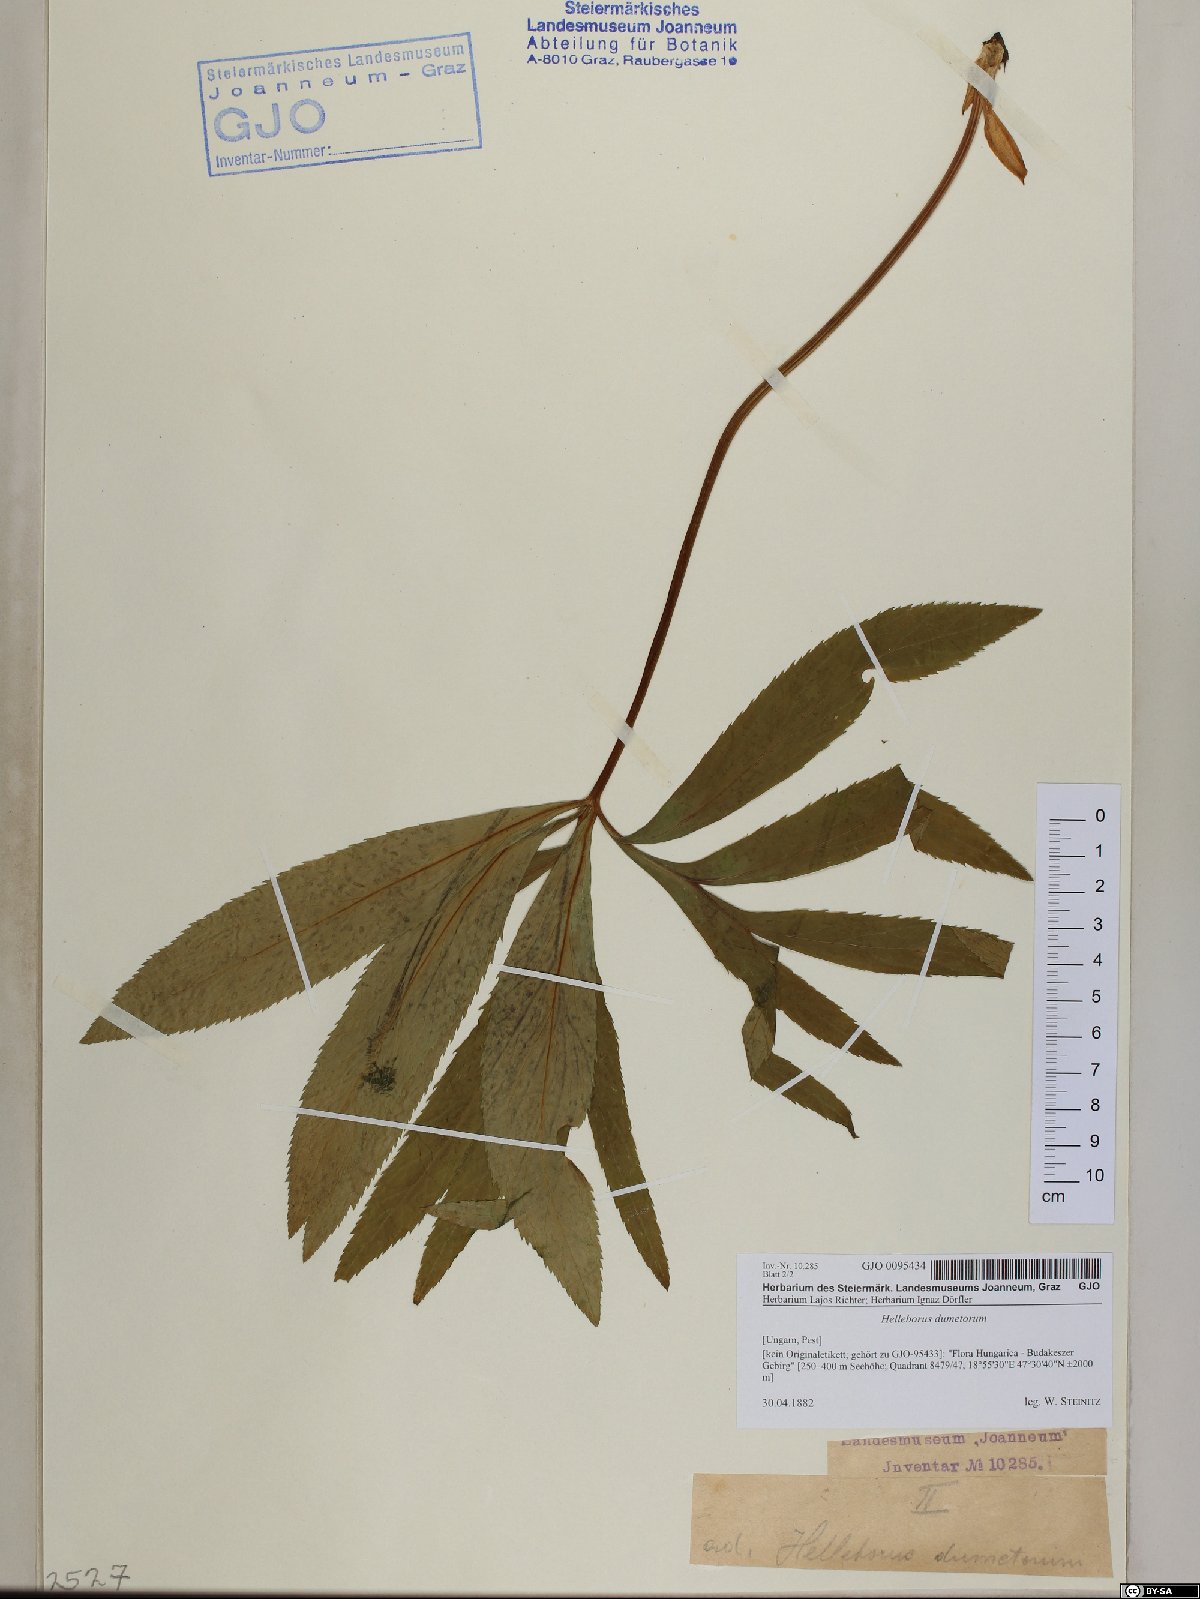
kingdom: Plantae
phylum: Tracheophyta
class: Magnoliopsida
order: Ranunculales
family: Ranunculaceae
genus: Helleborus
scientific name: Helleborus dumetorum
